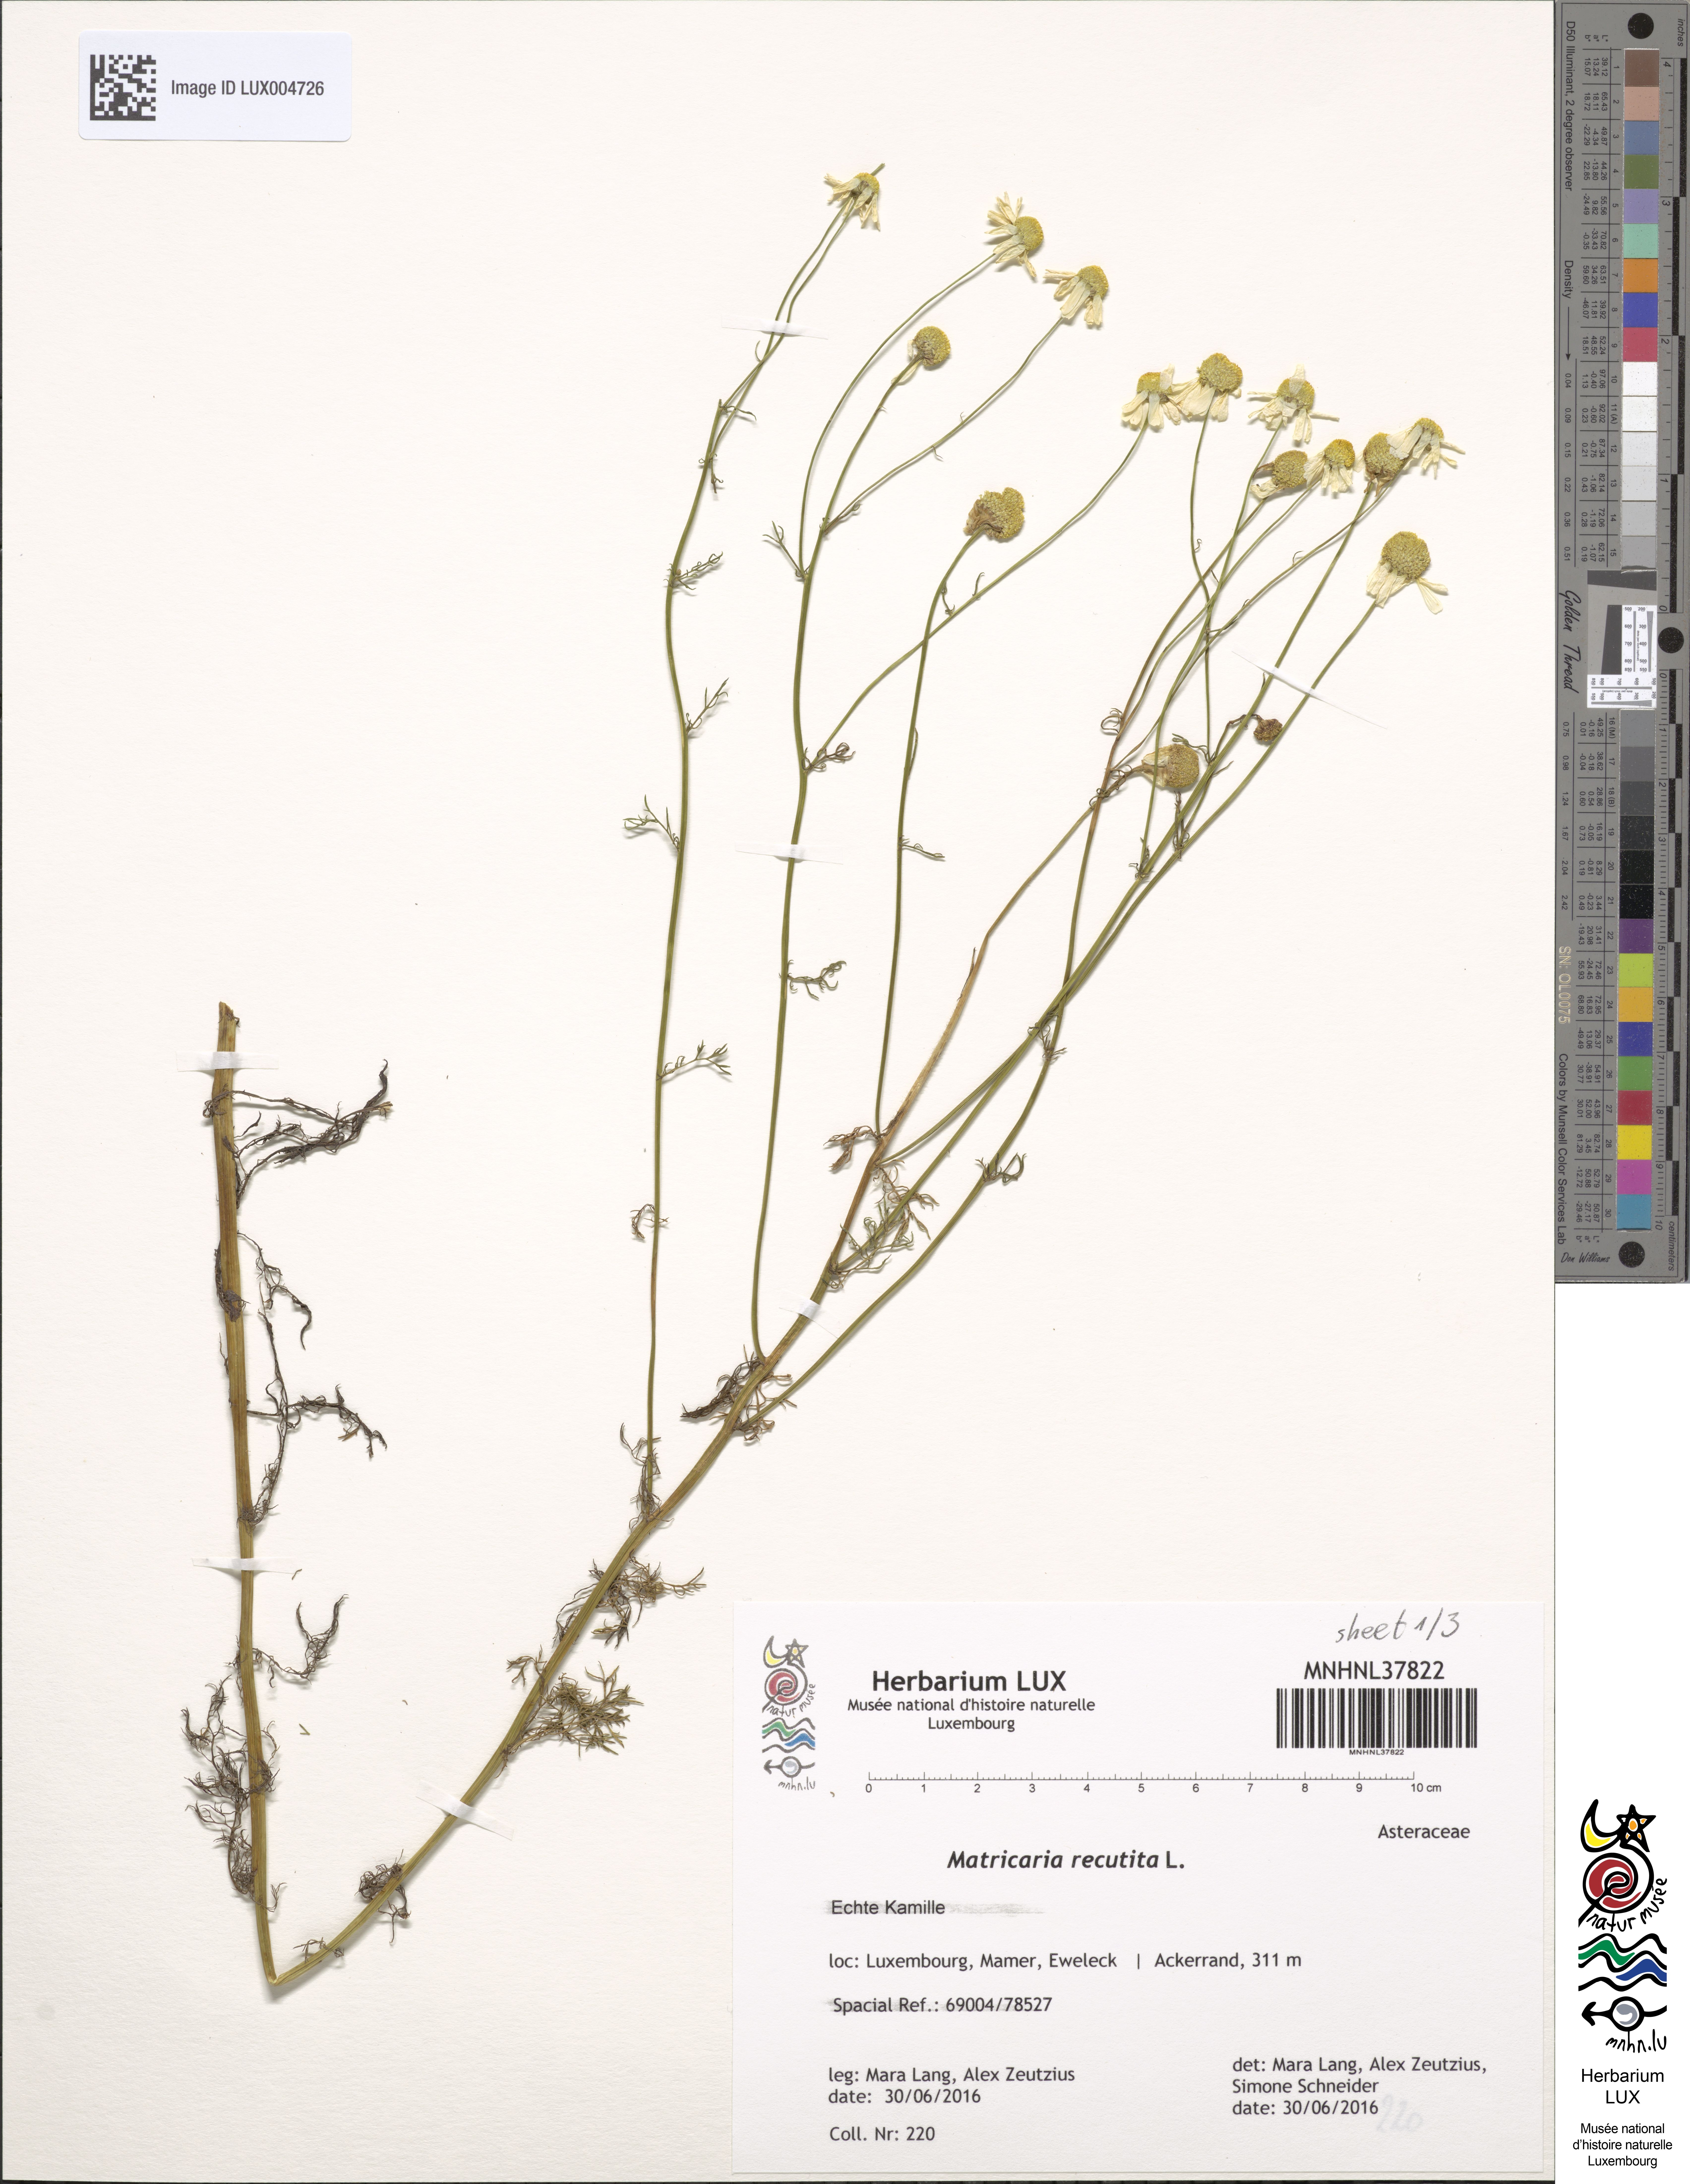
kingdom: Plantae
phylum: Tracheophyta
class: Magnoliopsida
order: Asterales
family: Asteraceae
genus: Matricaria
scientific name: Matricaria chamomilla
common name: Scented mayweed
